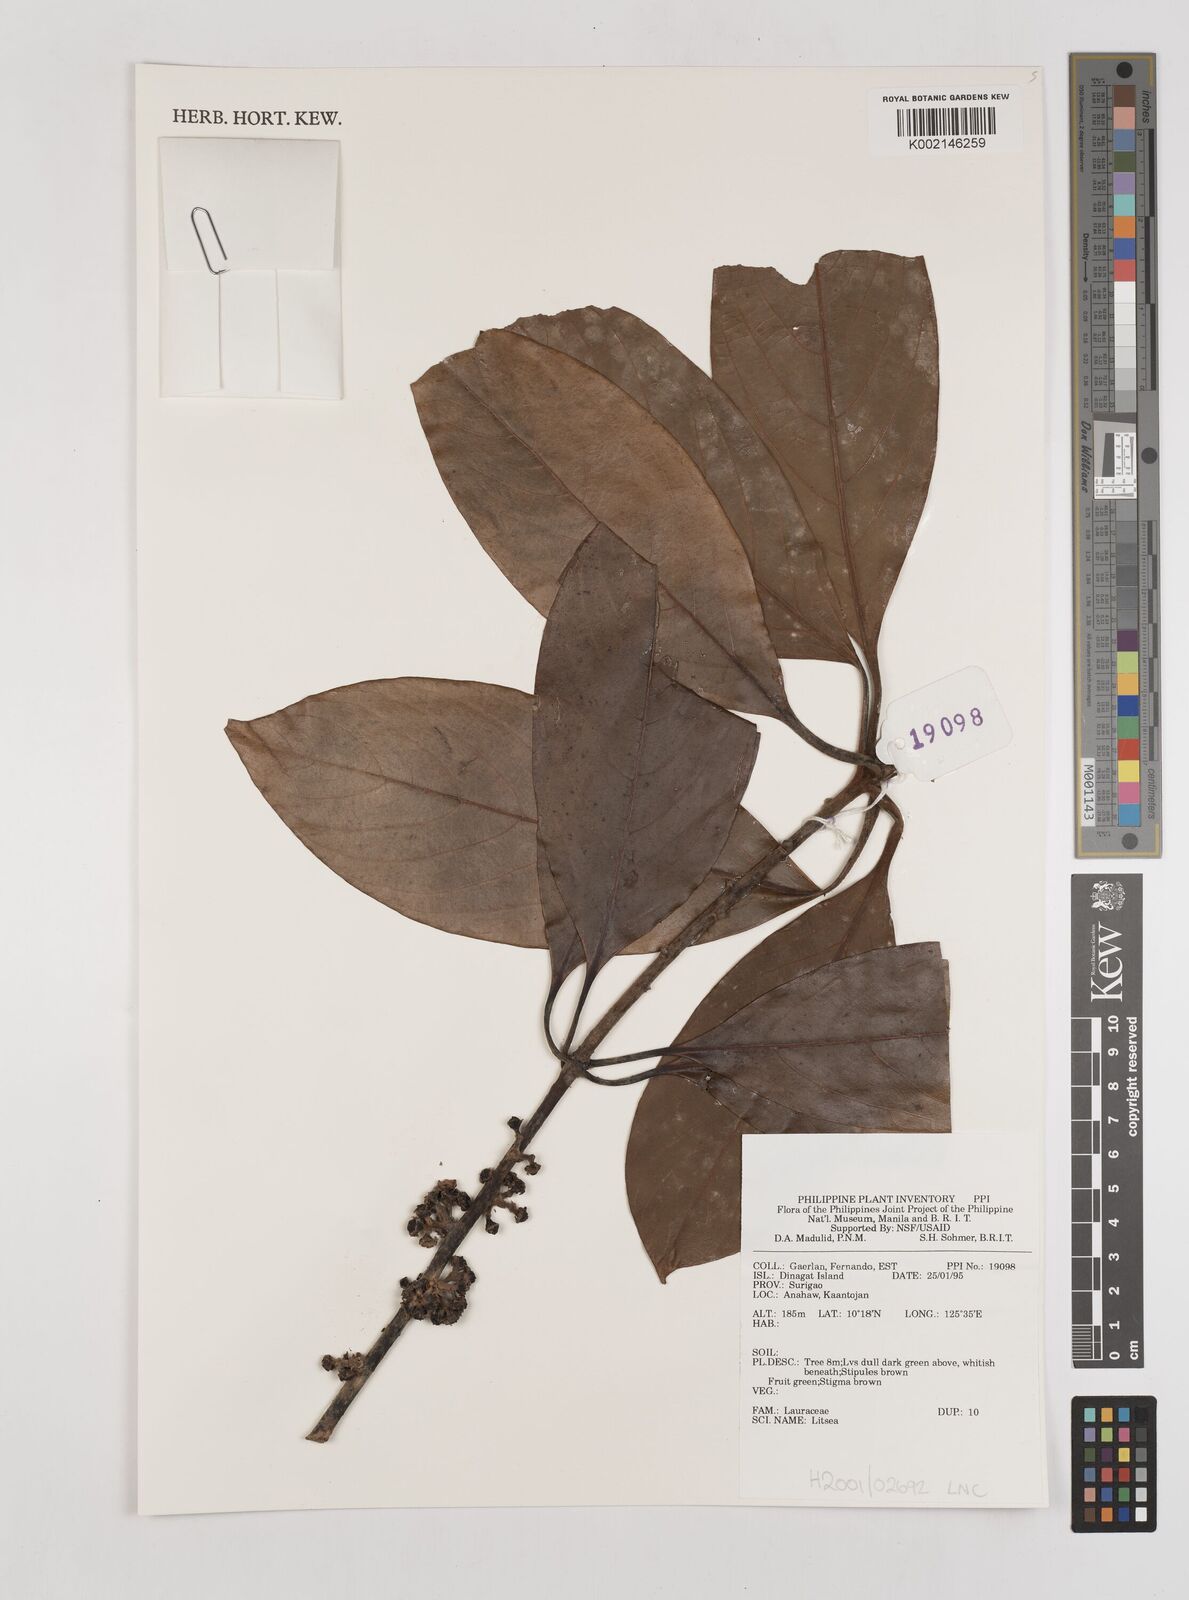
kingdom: Plantae
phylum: Tracheophyta
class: Magnoliopsida
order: Laurales
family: Lauraceae
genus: Litsea
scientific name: Litsea
